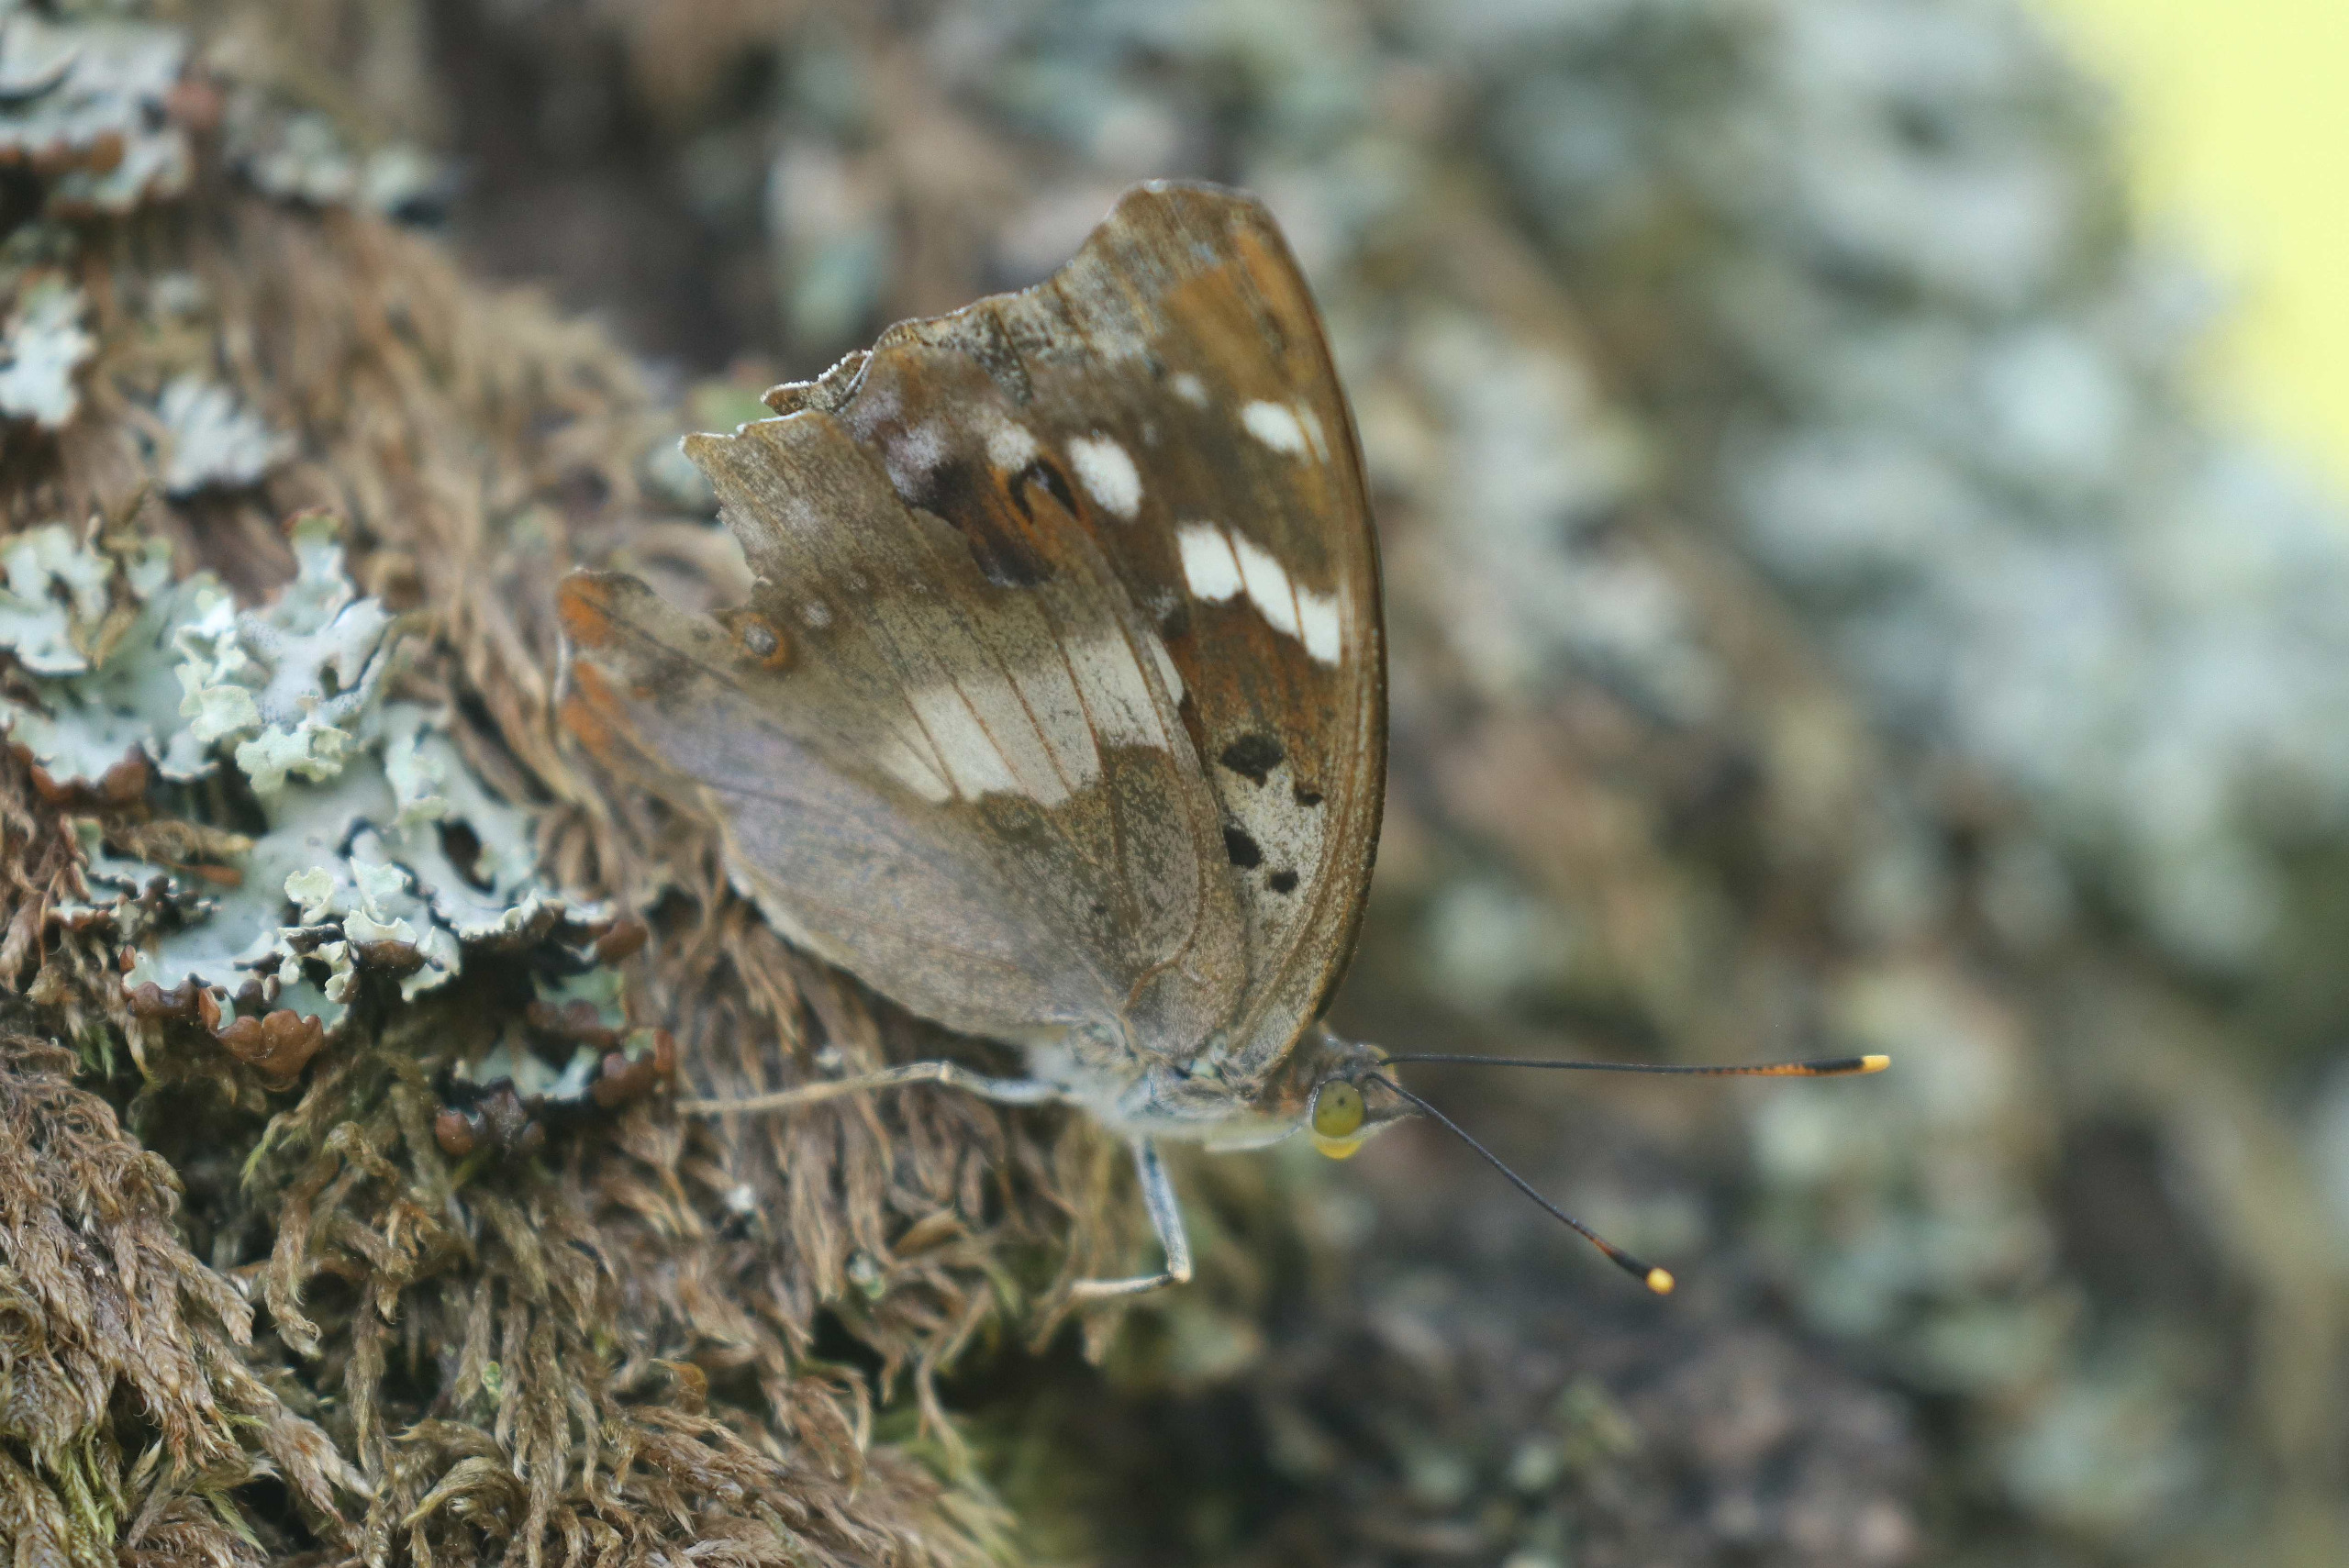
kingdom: Animalia
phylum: Arthropoda
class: Insecta
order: Lepidoptera
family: Nymphalidae
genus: Apatura
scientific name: Apatura ilia
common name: Ilia
